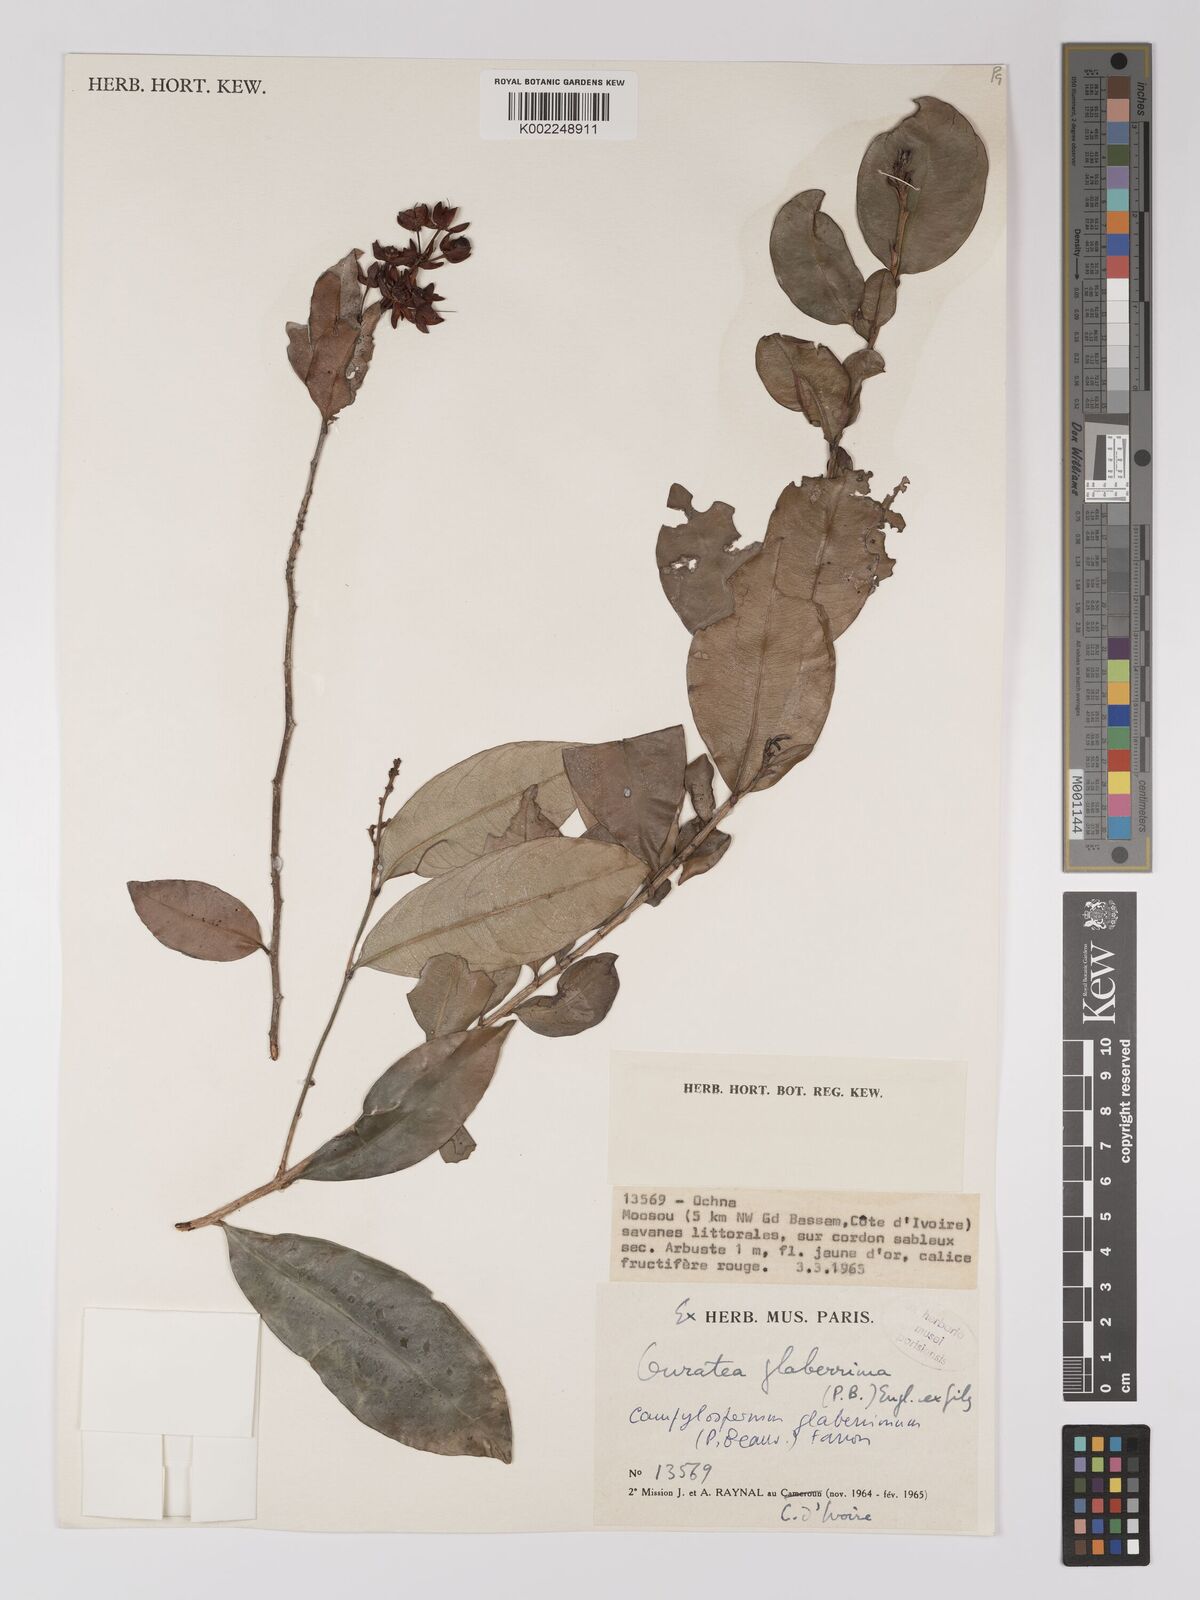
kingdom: Plantae
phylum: Tracheophyta
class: Magnoliopsida
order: Malpighiales
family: Ochnaceae
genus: Campylospermum
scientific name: Campylospermum glaberrimum
